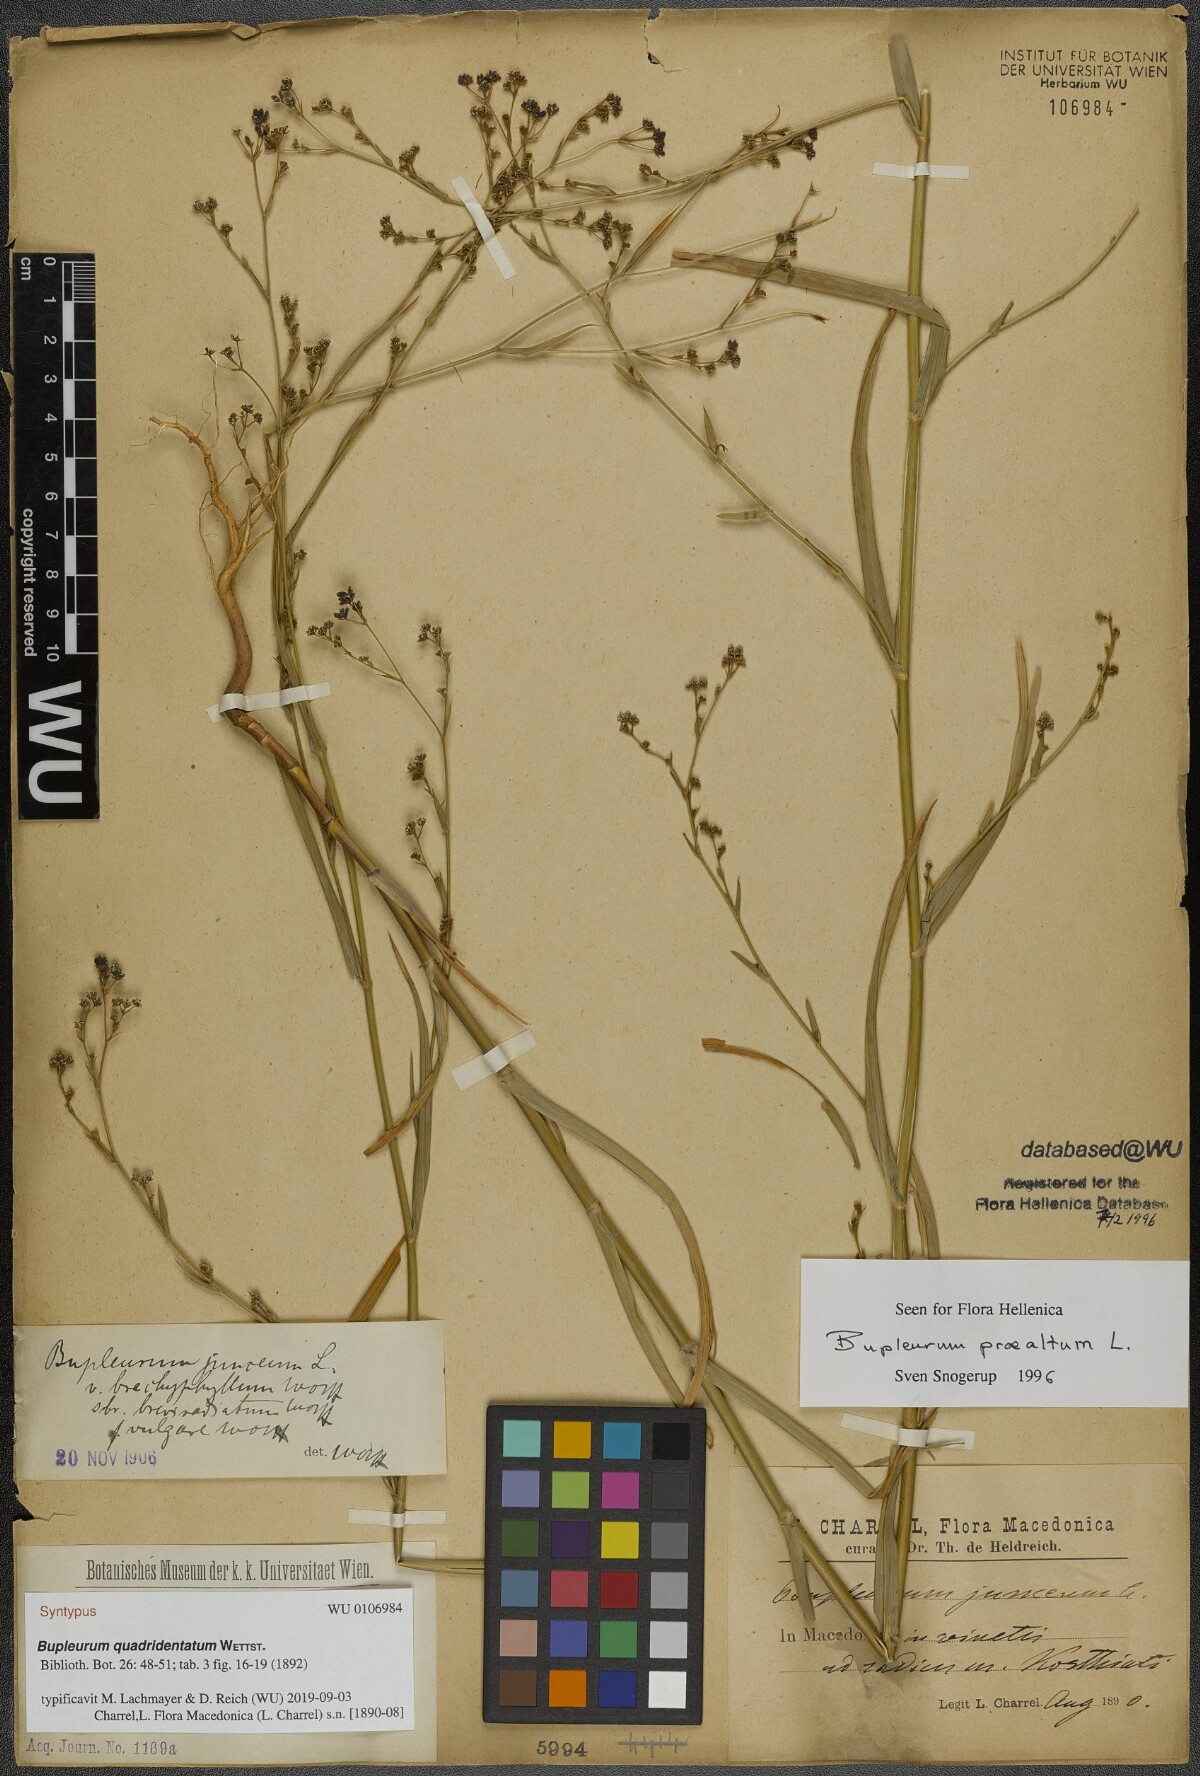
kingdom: Plantae
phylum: Tracheophyta
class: Magnoliopsida
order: Apiales
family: Apiaceae
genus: Bupleurum
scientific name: Bupleurum praealtum
